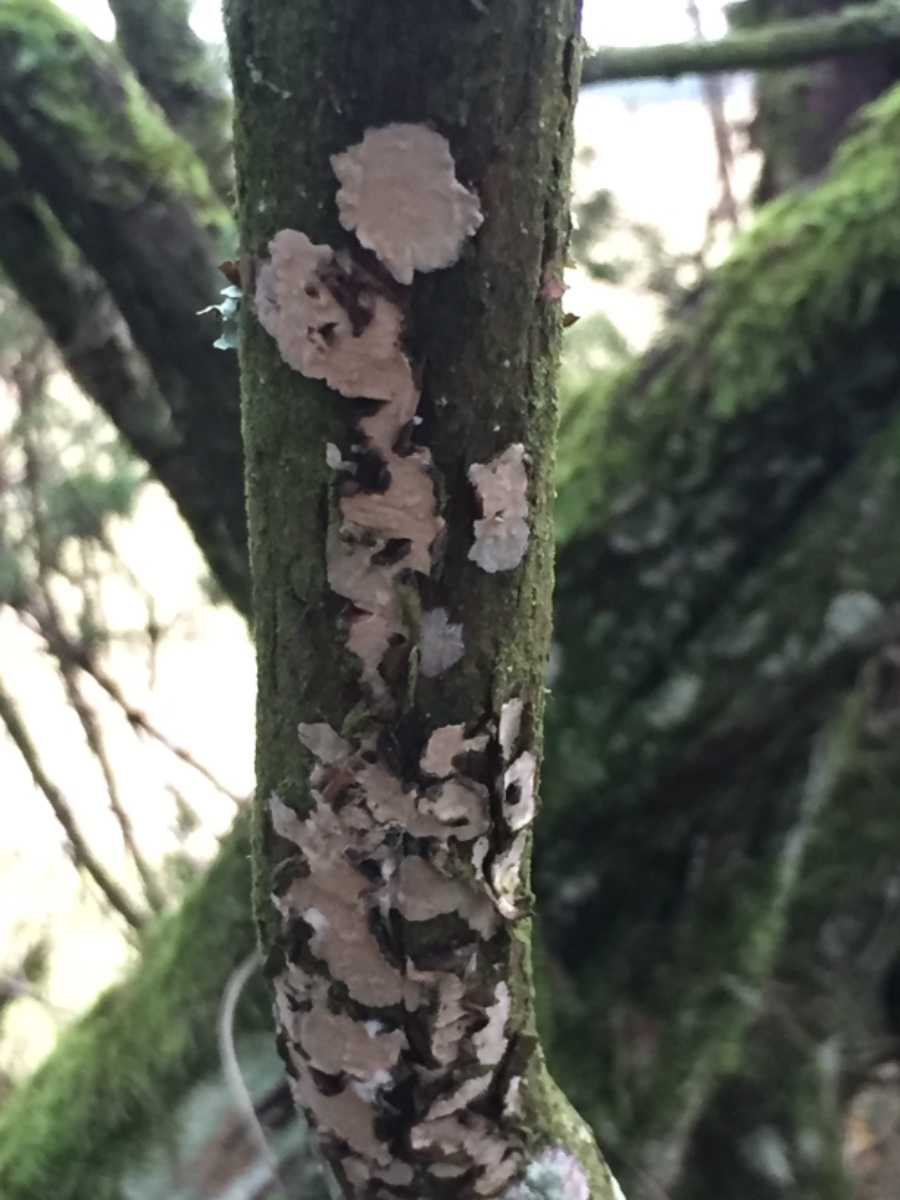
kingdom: Fungi
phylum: Basidiomycota
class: Agaricomycetes
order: Russulales
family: Echinodontiaceae
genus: Amylostereum
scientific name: Amylostereum laevigatum
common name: ene-lædersvamp
